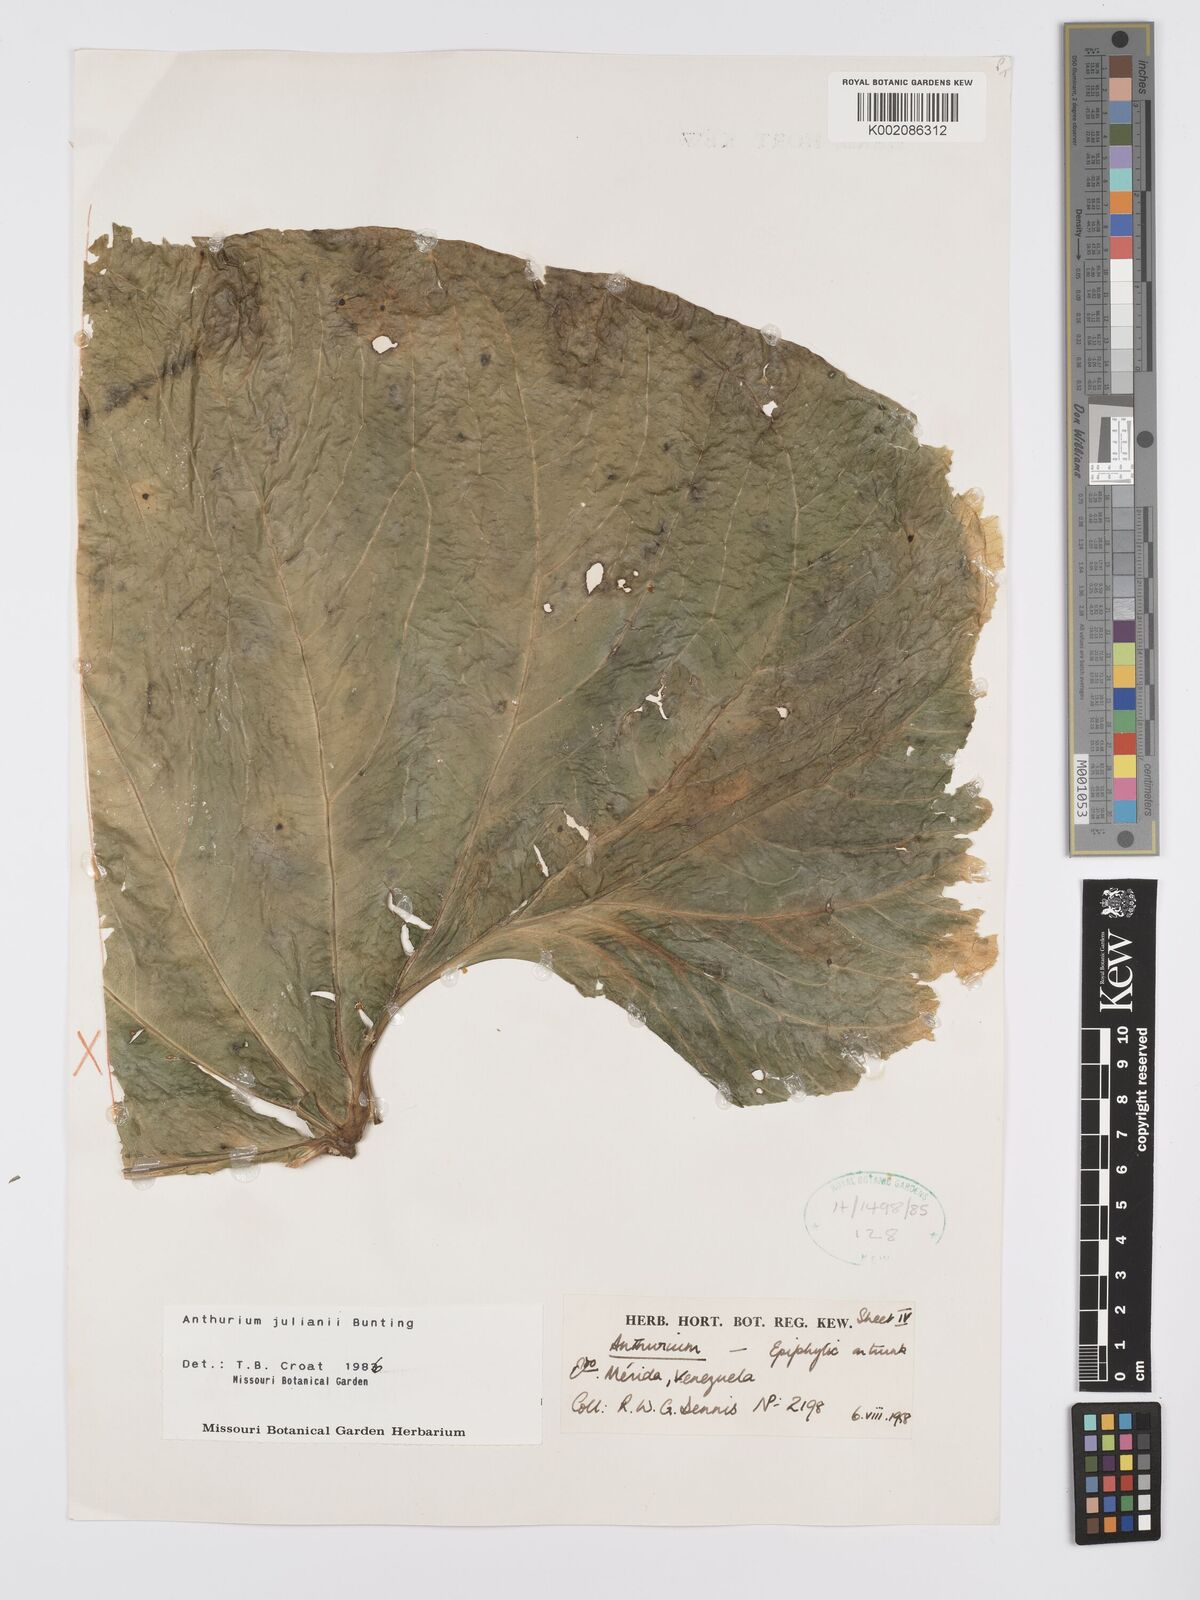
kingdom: Plantae
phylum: Tracheophyta
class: Liliopsida
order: Alismatales
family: Araceae
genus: Anthurium
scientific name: Anthurium julianii
